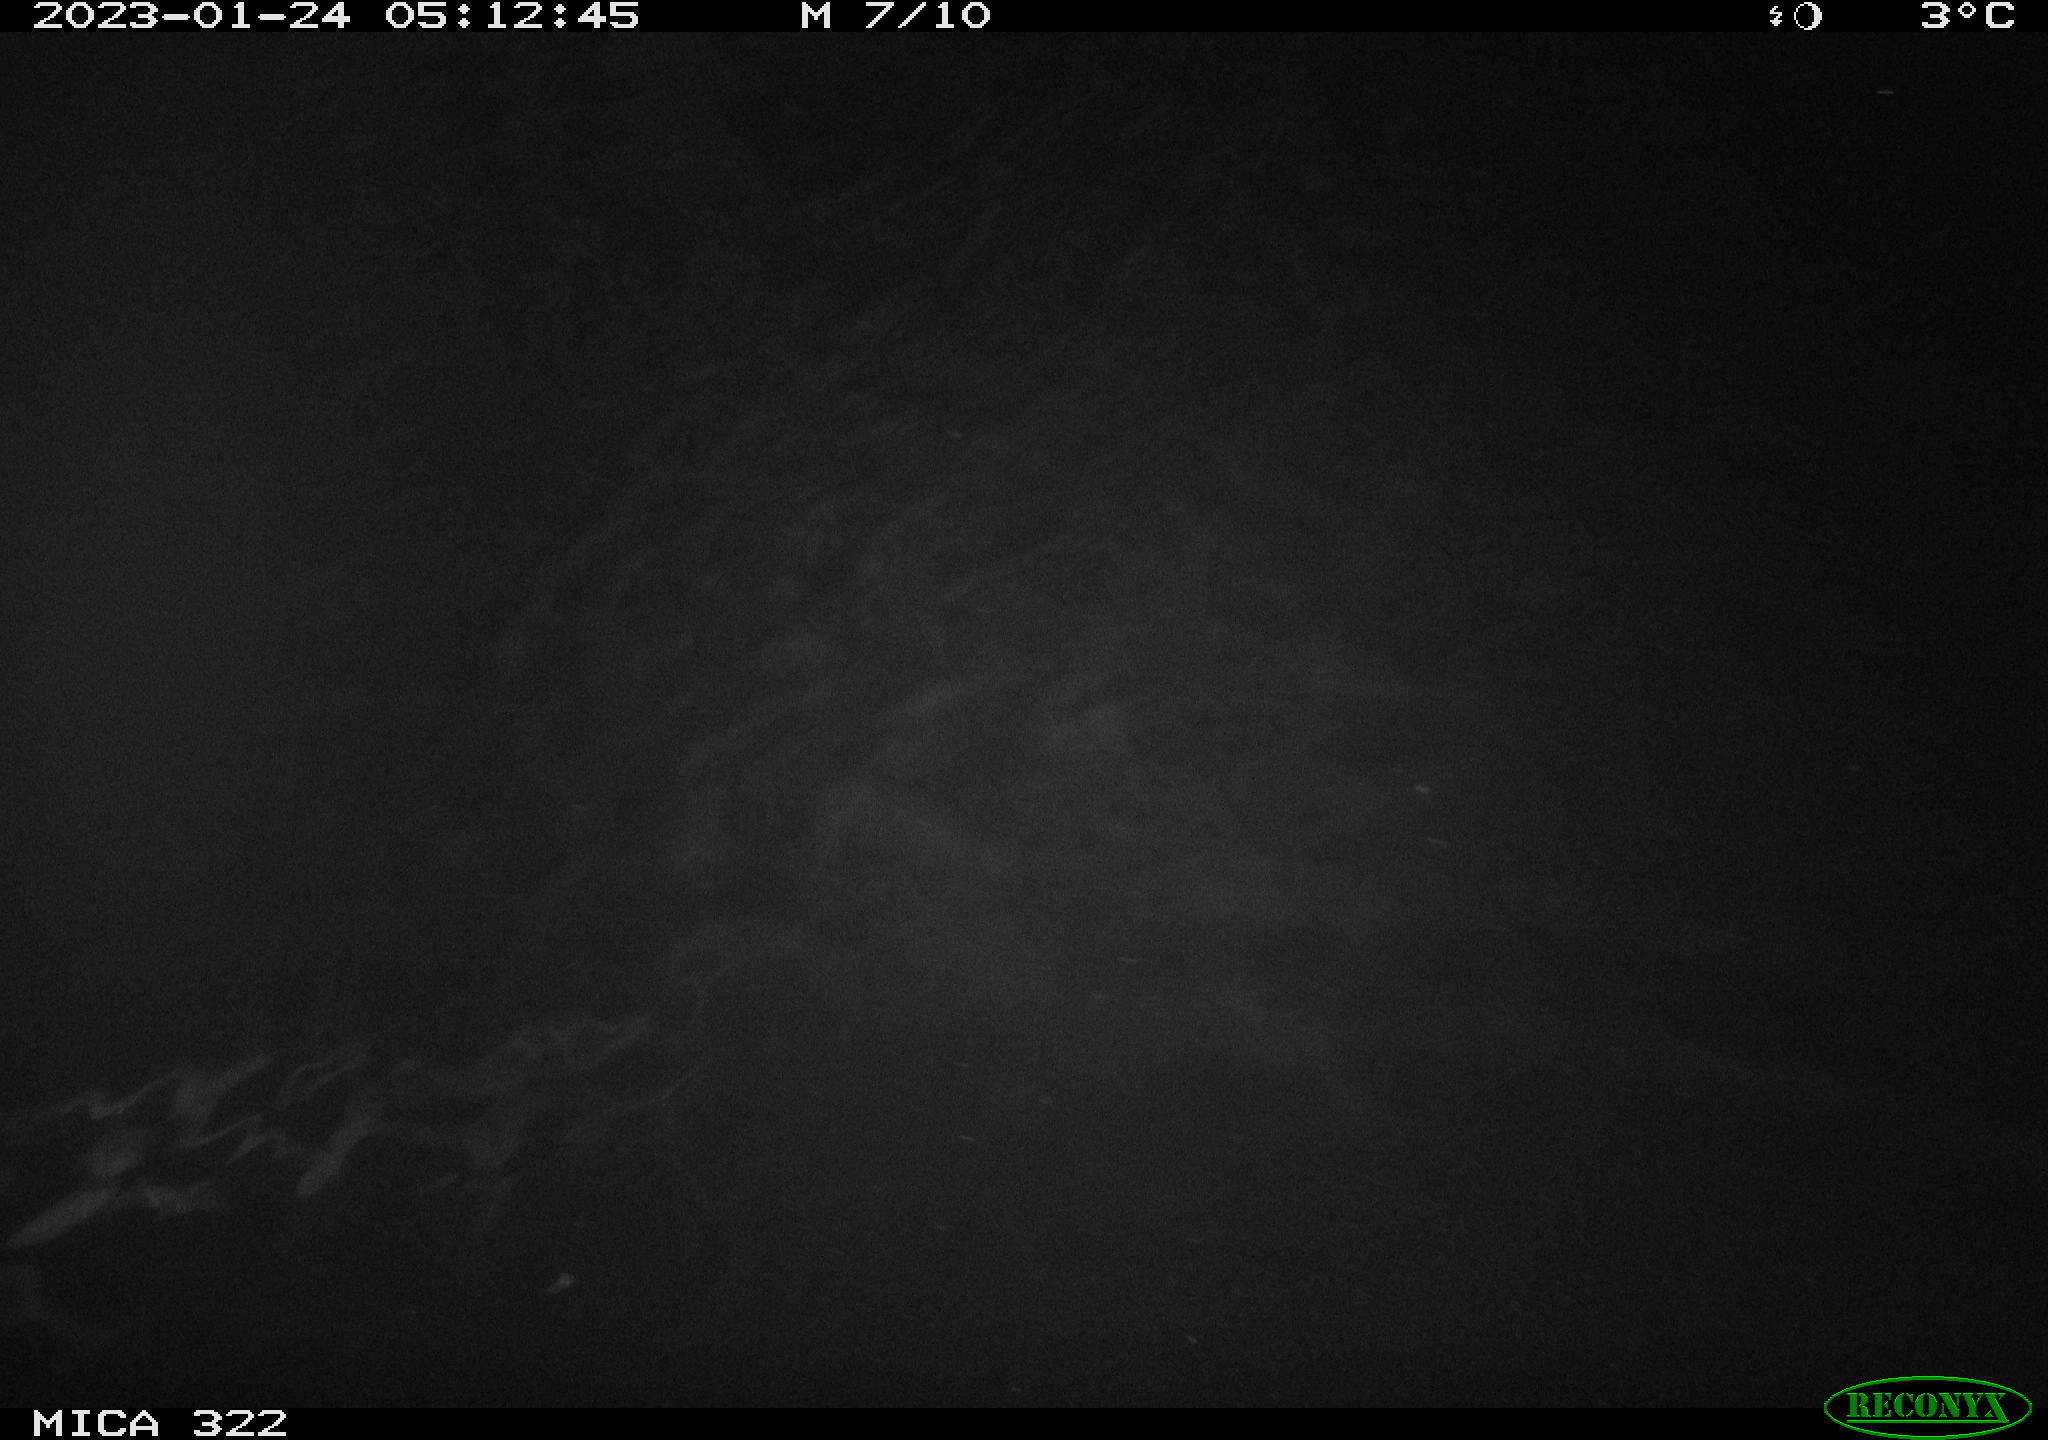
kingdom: Animalia
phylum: Chordata
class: Aves
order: Anseriformes
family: Anatidae
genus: Anas
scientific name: Anas
